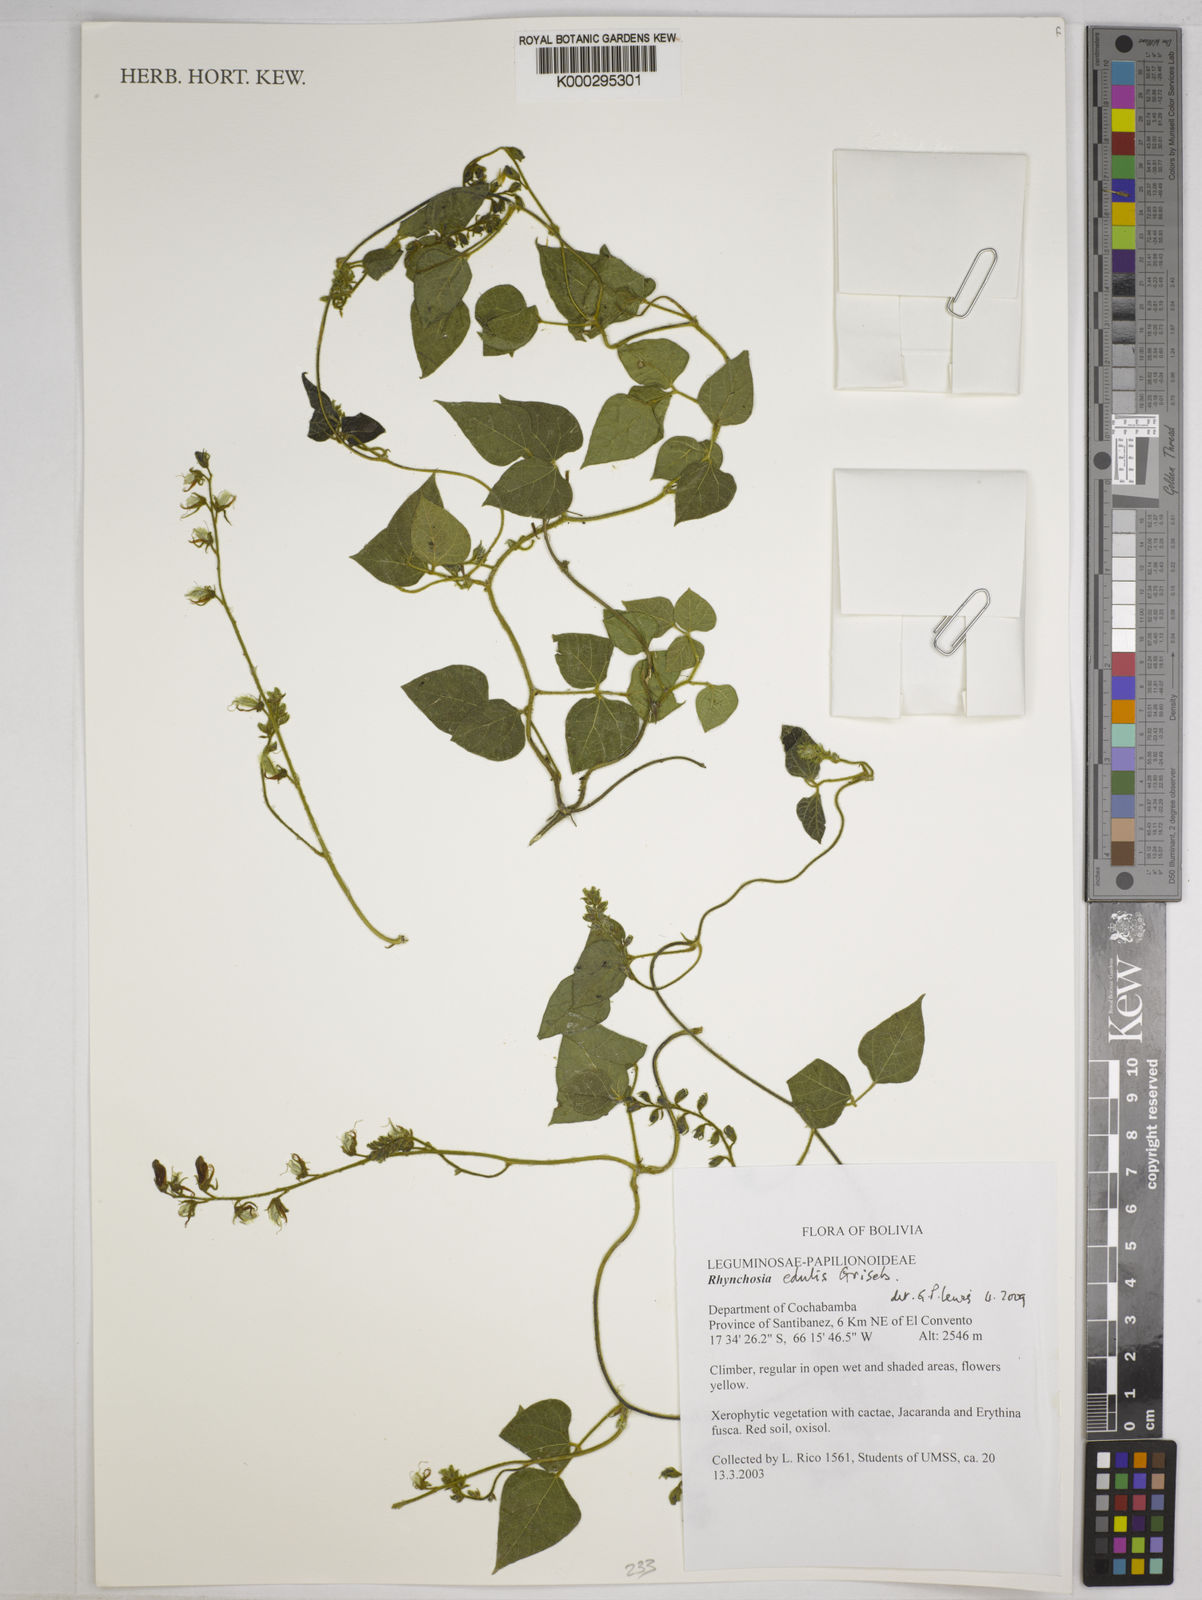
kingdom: Plantae
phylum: Tracheophyta
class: Magnoliopsida
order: Fabales
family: Fabaceae
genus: Rhynchosia
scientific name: Rhynchosia edulis
